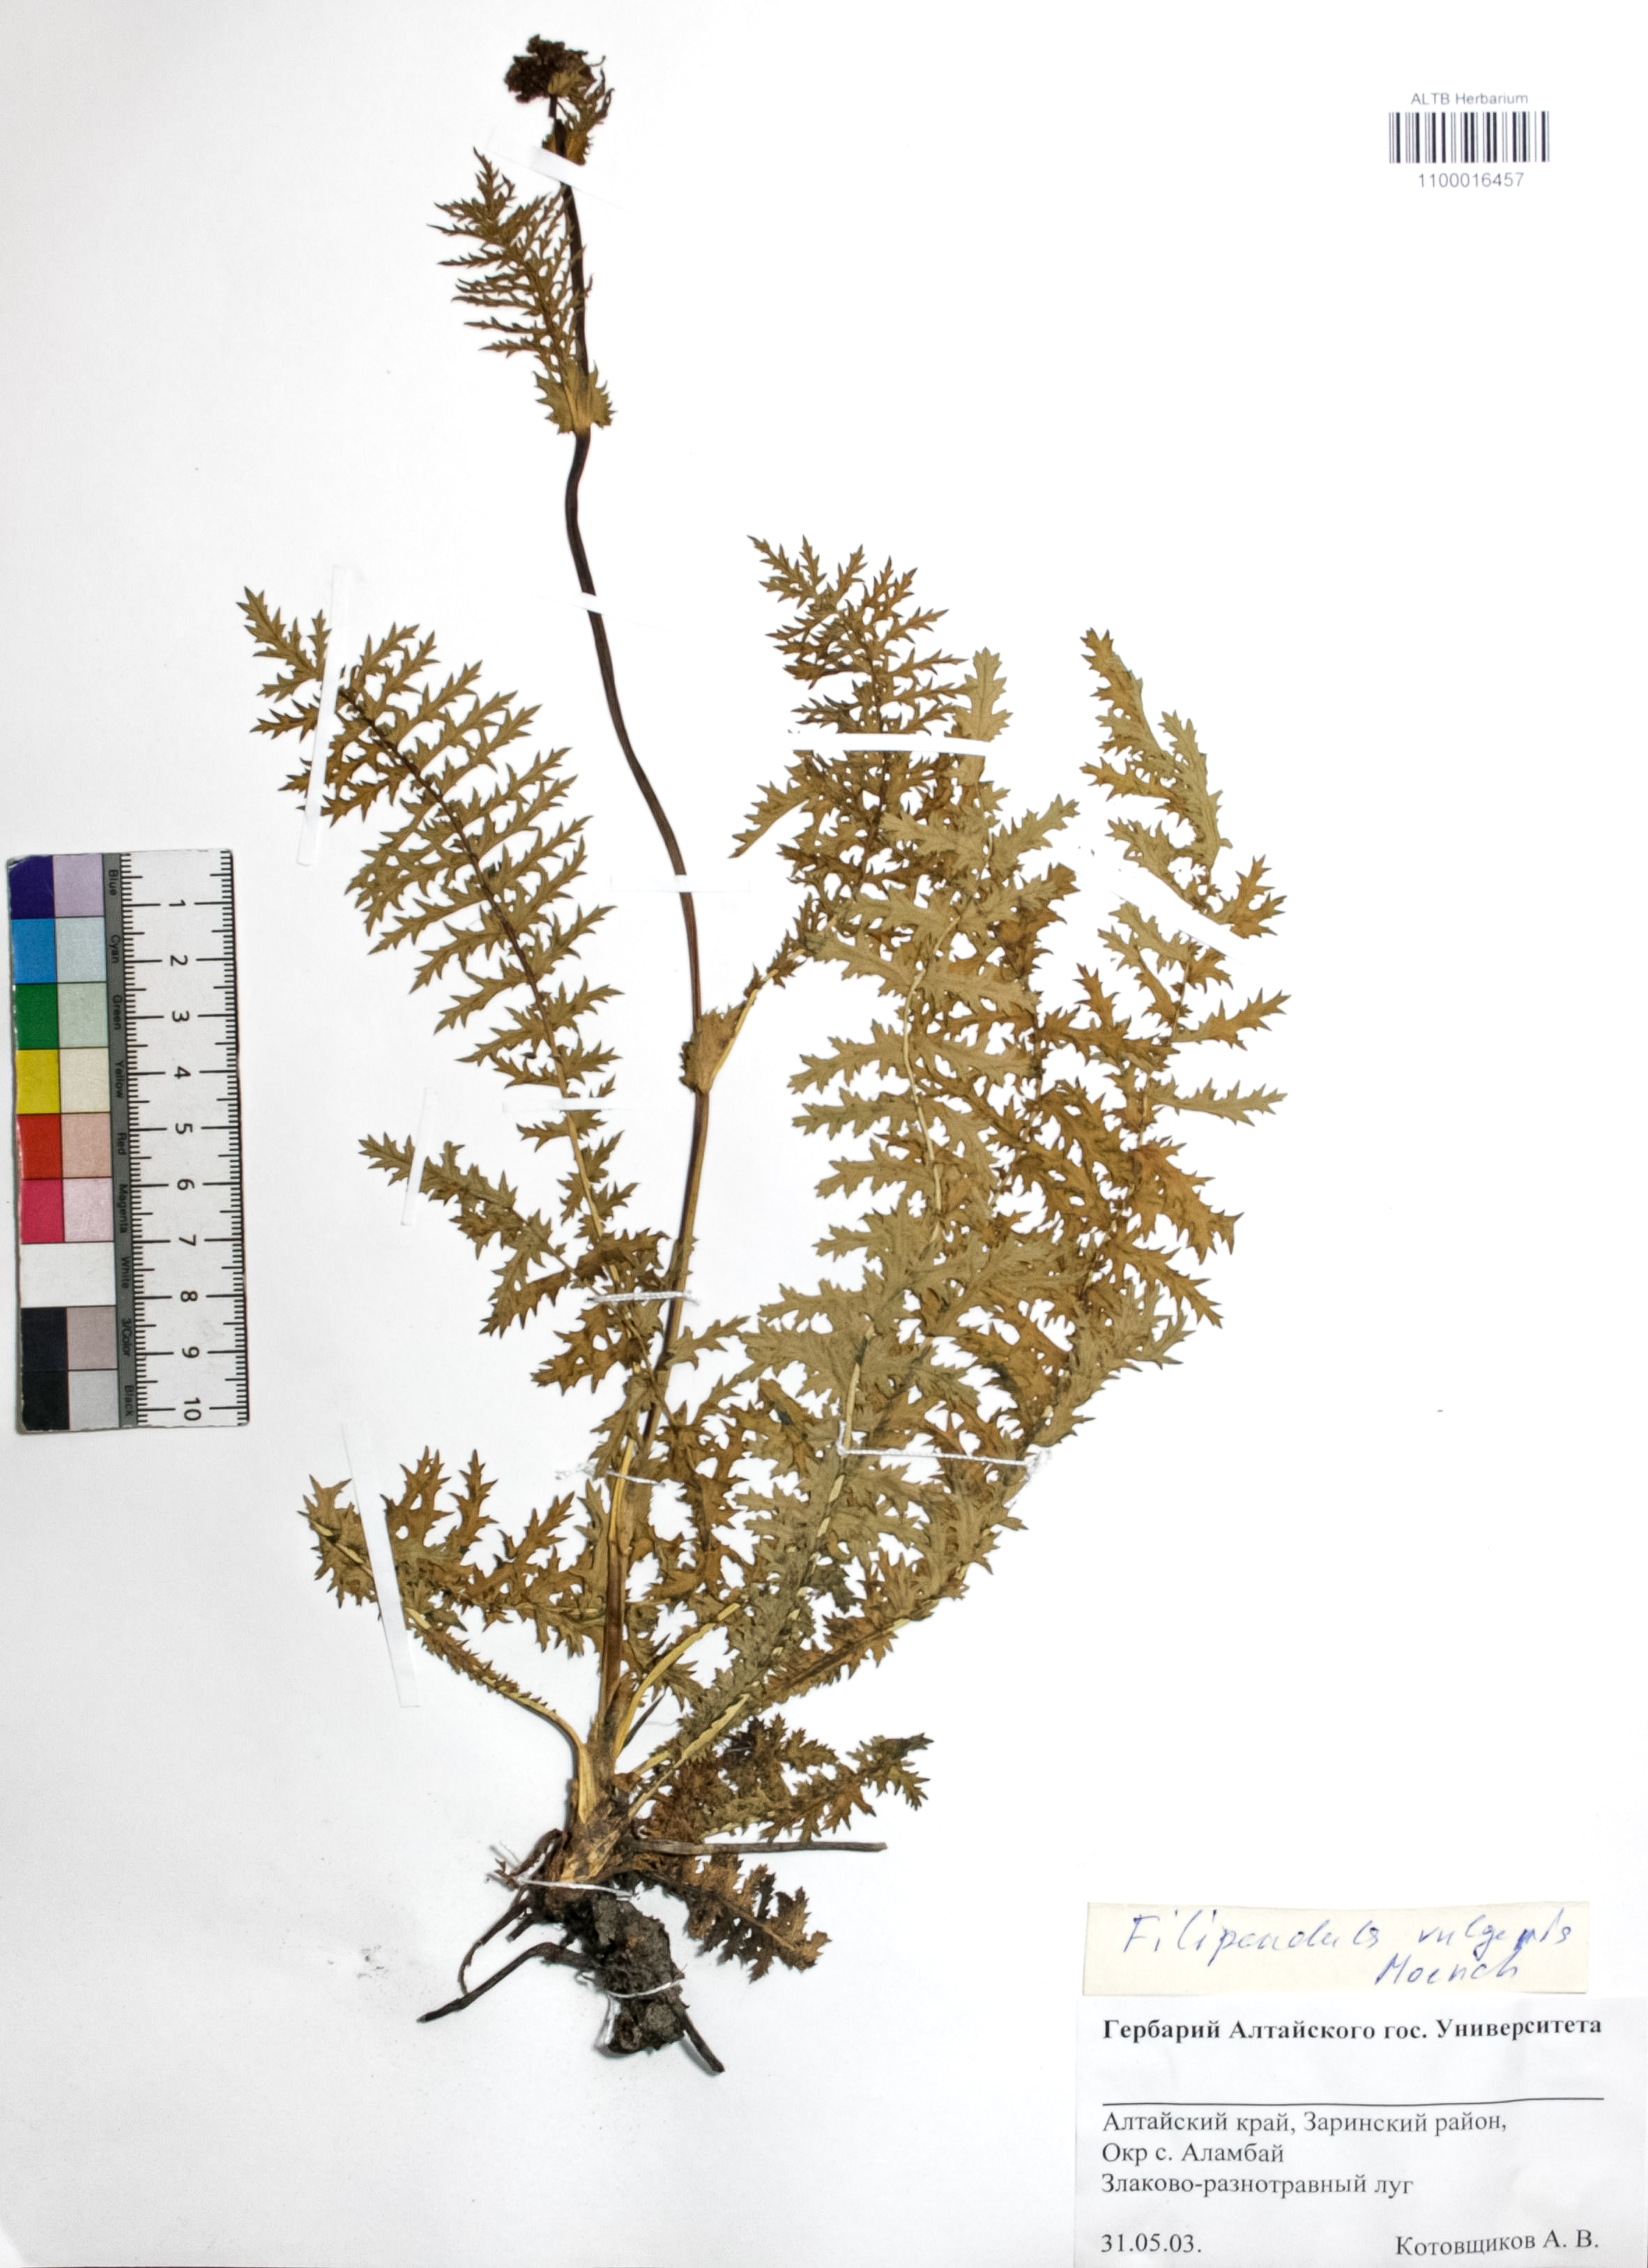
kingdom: Plantae
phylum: Tracheophyta
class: Magnoliopsida
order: Rosales
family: Rosaceae
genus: Filipendula
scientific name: Filipendula vulgaris
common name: Dropwort
